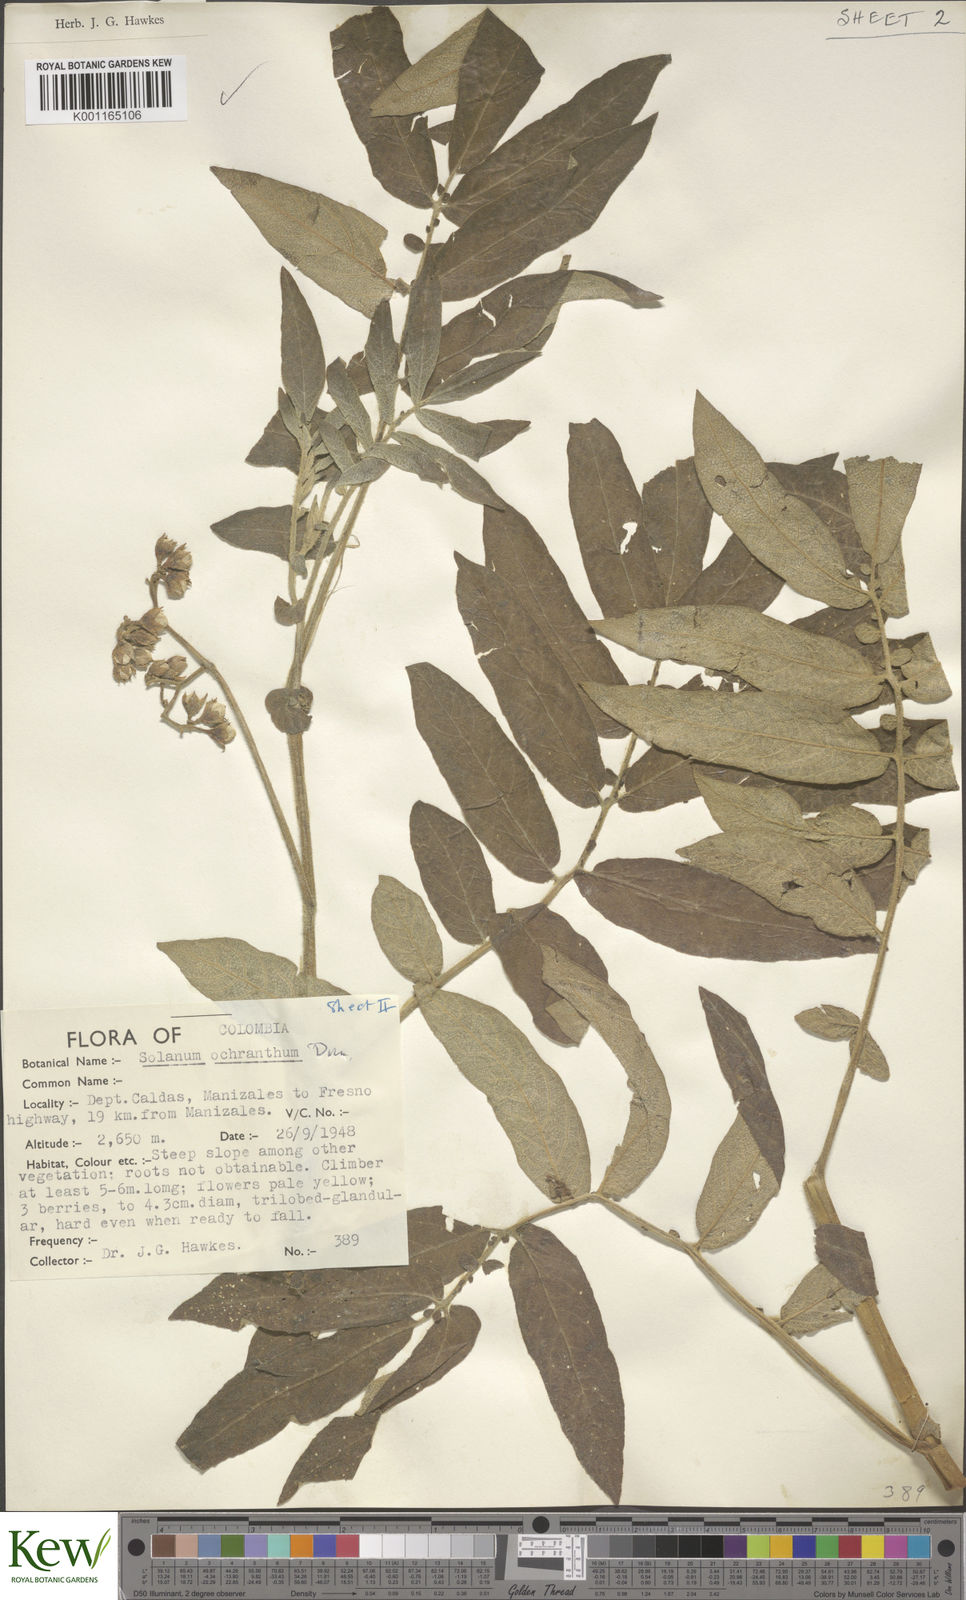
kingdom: Plantae
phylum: Tracheophyta
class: Magnoliopsida
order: Solanales
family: Solanaceae
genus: Solanum
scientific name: Solanum ochranthum
